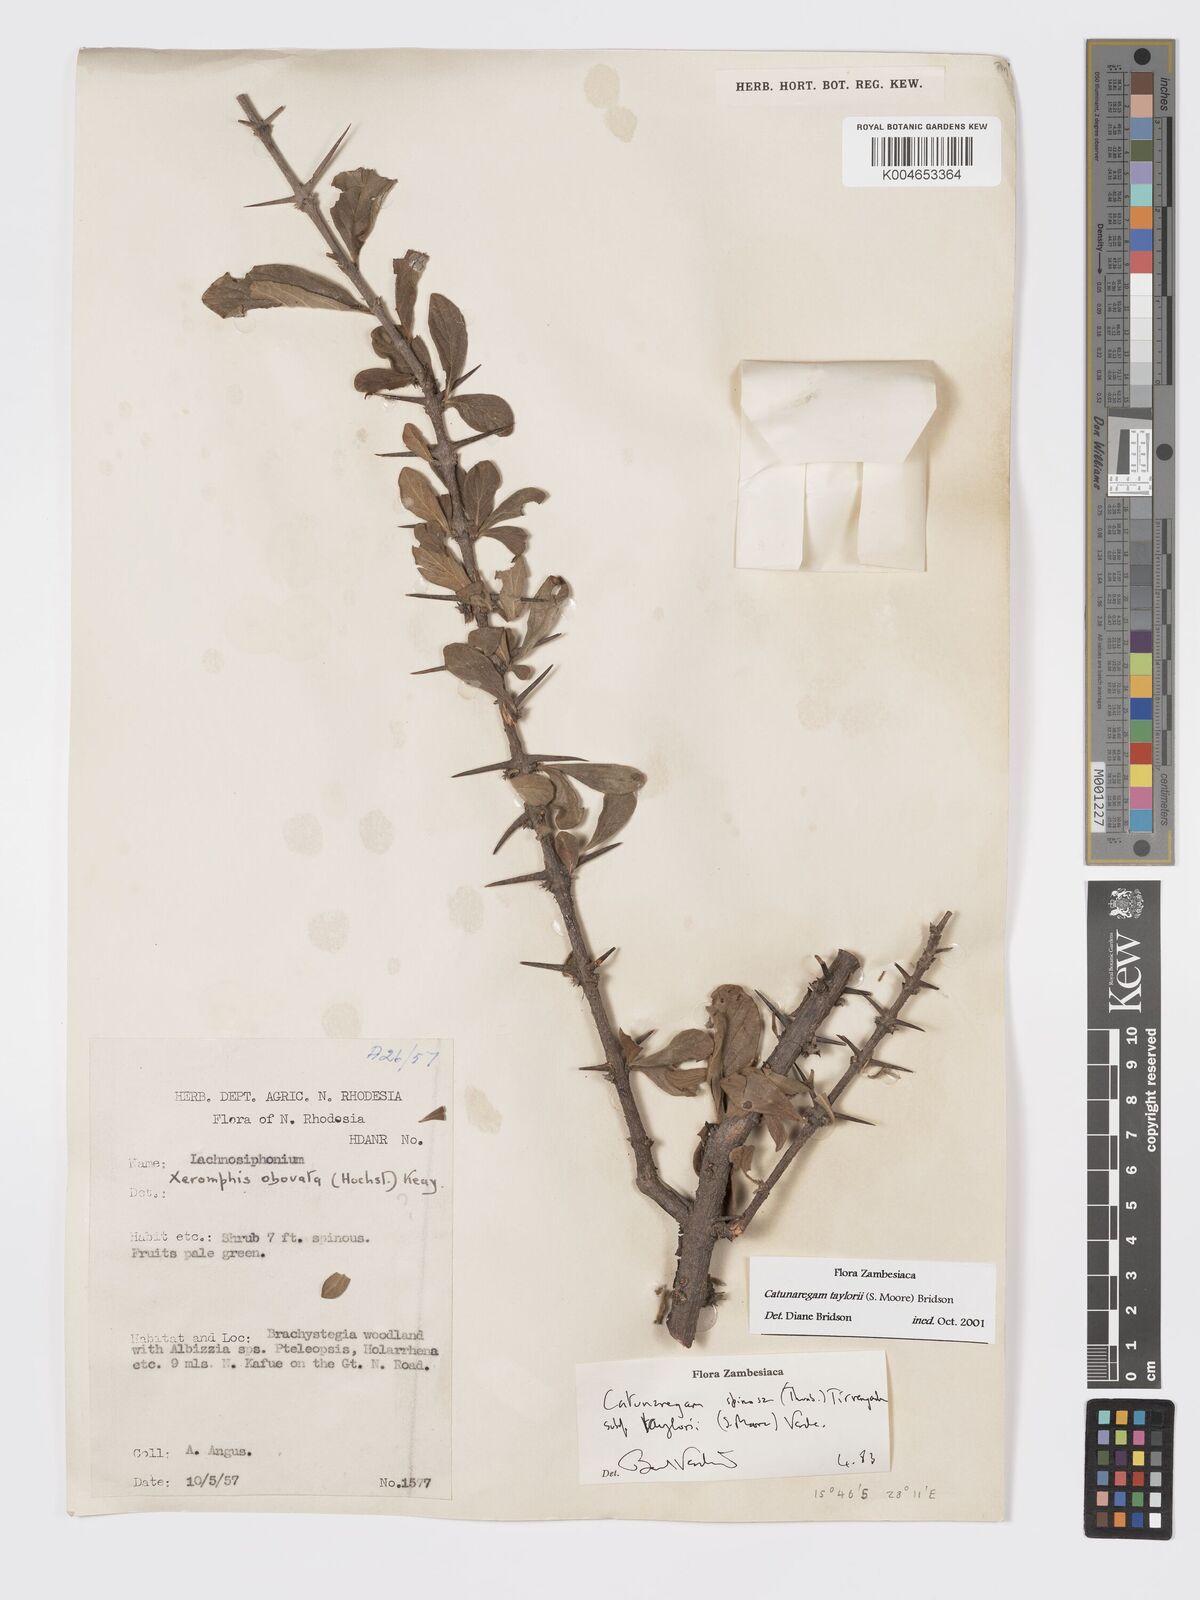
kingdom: Plantae
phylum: Tracheophyta
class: Magnoliopsida
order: Gentianales
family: Rubiaceae
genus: Catunaregam
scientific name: Catunaregam obovata
